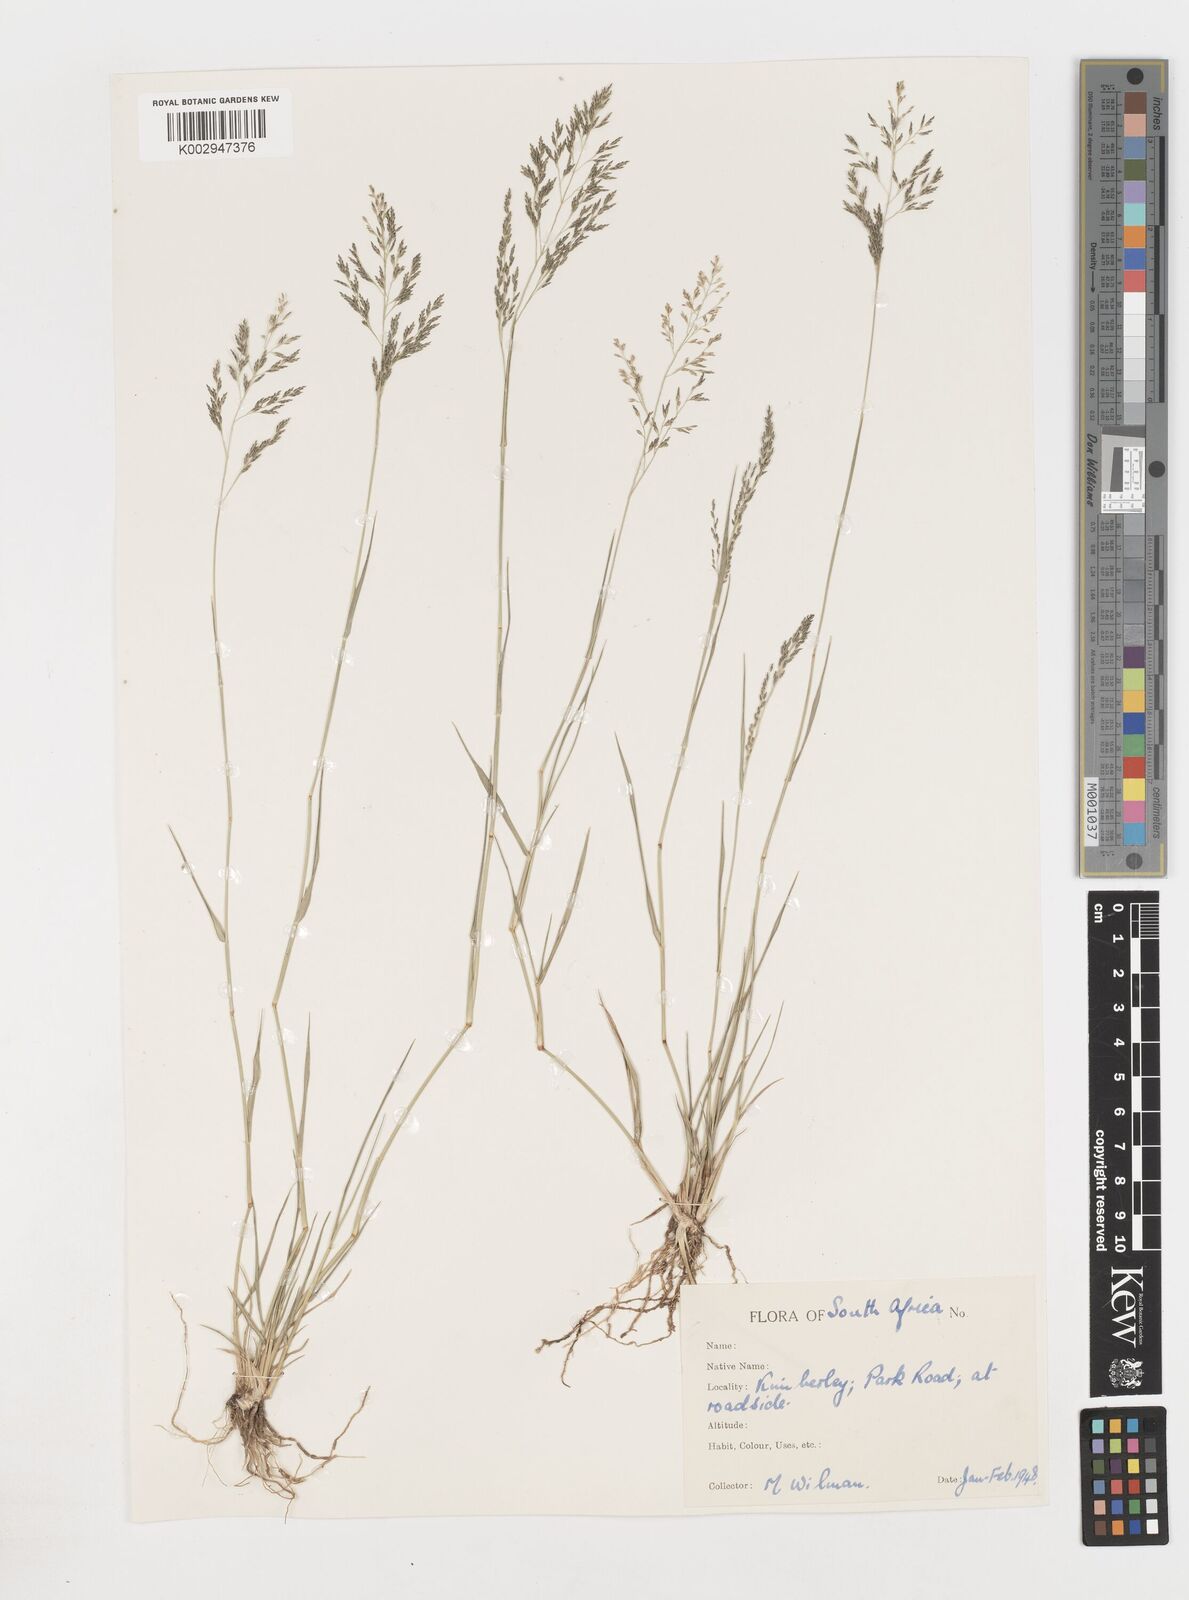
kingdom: Plantae
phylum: Tracheophyta
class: Liliopsida
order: Poales
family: Poaceae
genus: Eragrostis
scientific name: Eragrostis
